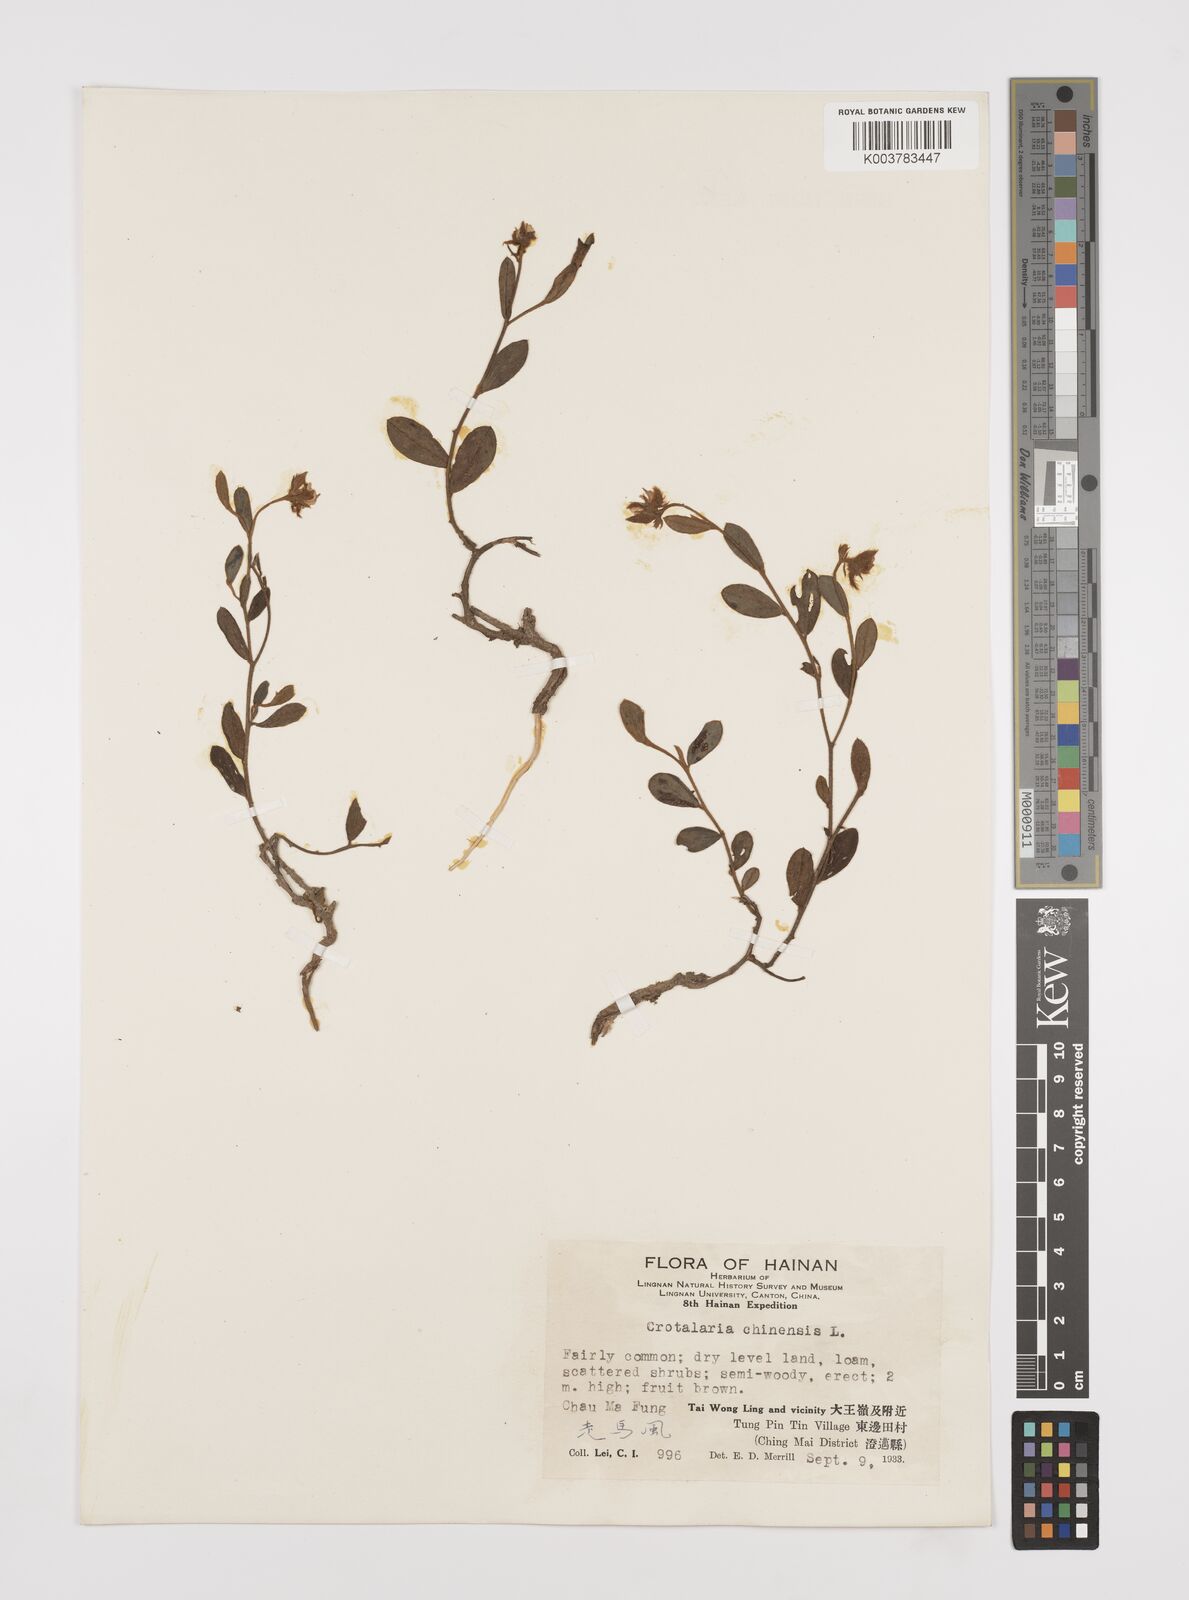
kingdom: Plantae
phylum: Tracheophyta
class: Magnoliopsida
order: Fabales
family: Fabaceae
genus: Crotalaria
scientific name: Crotalaria chinensis
